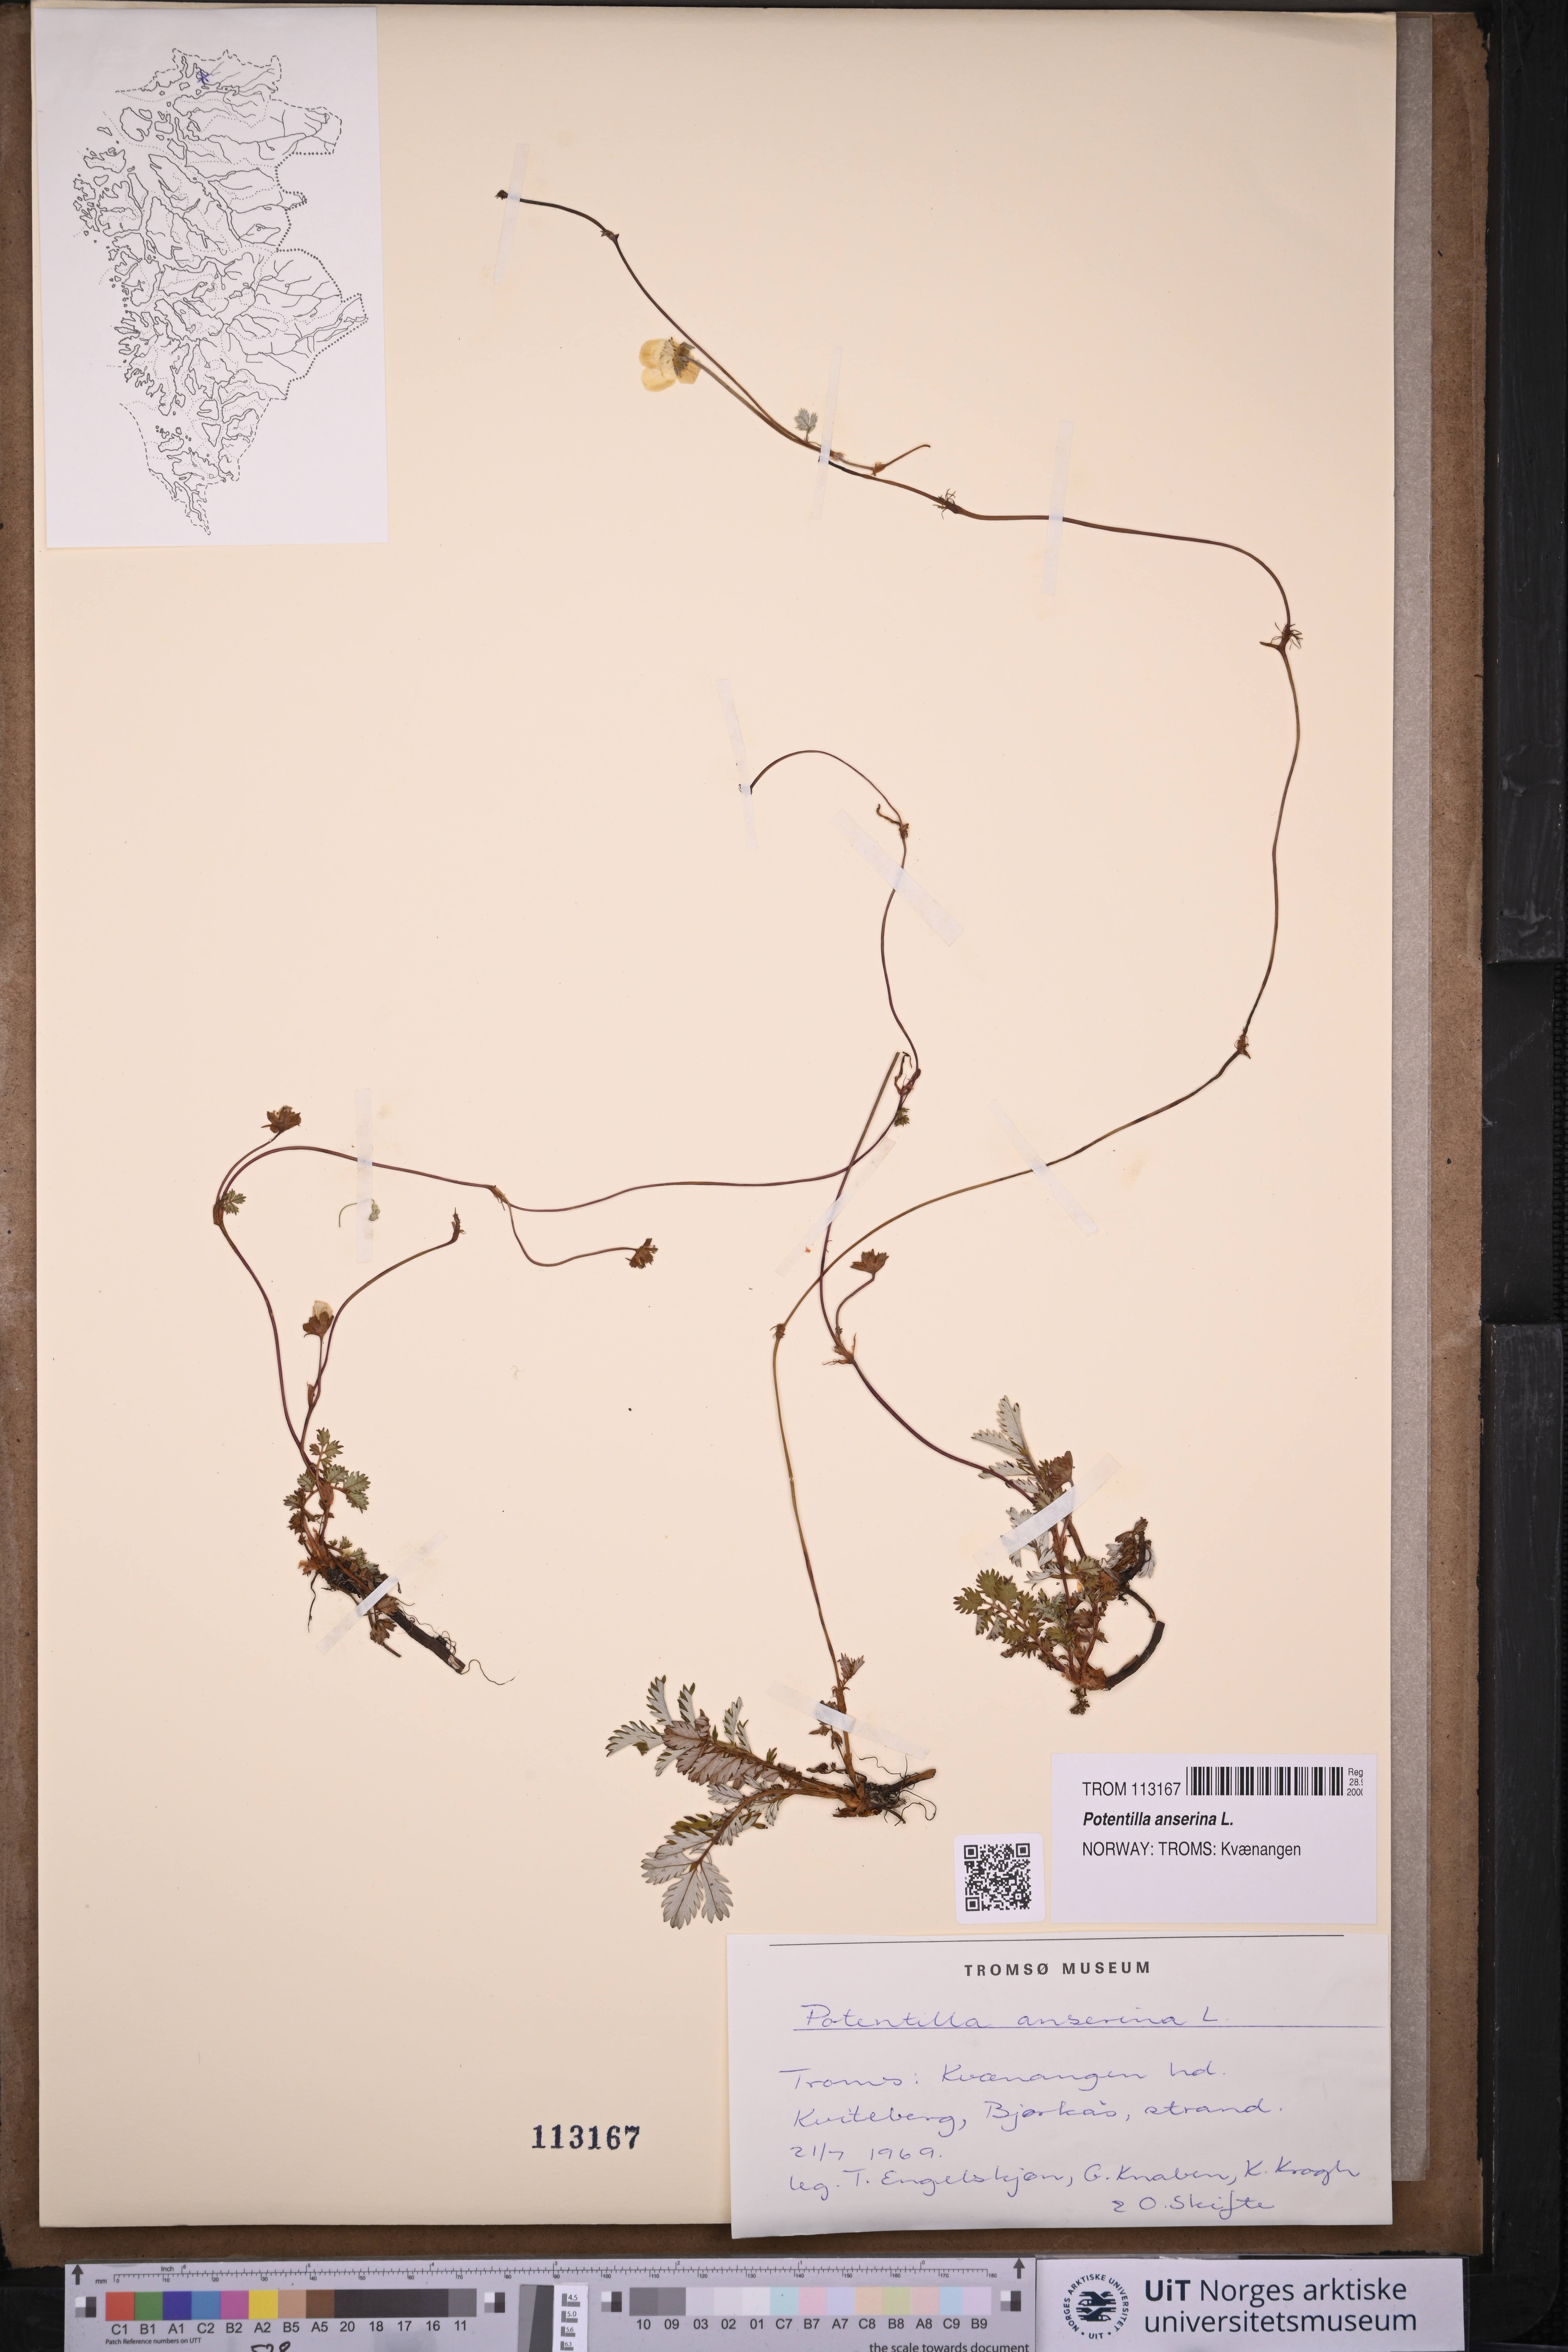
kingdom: Plantae
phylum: Tracheophyta
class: Magnoliopsida
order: Rosales
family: Rosaceae
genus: Argentina
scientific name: Argentina anserina
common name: Common silverweed
